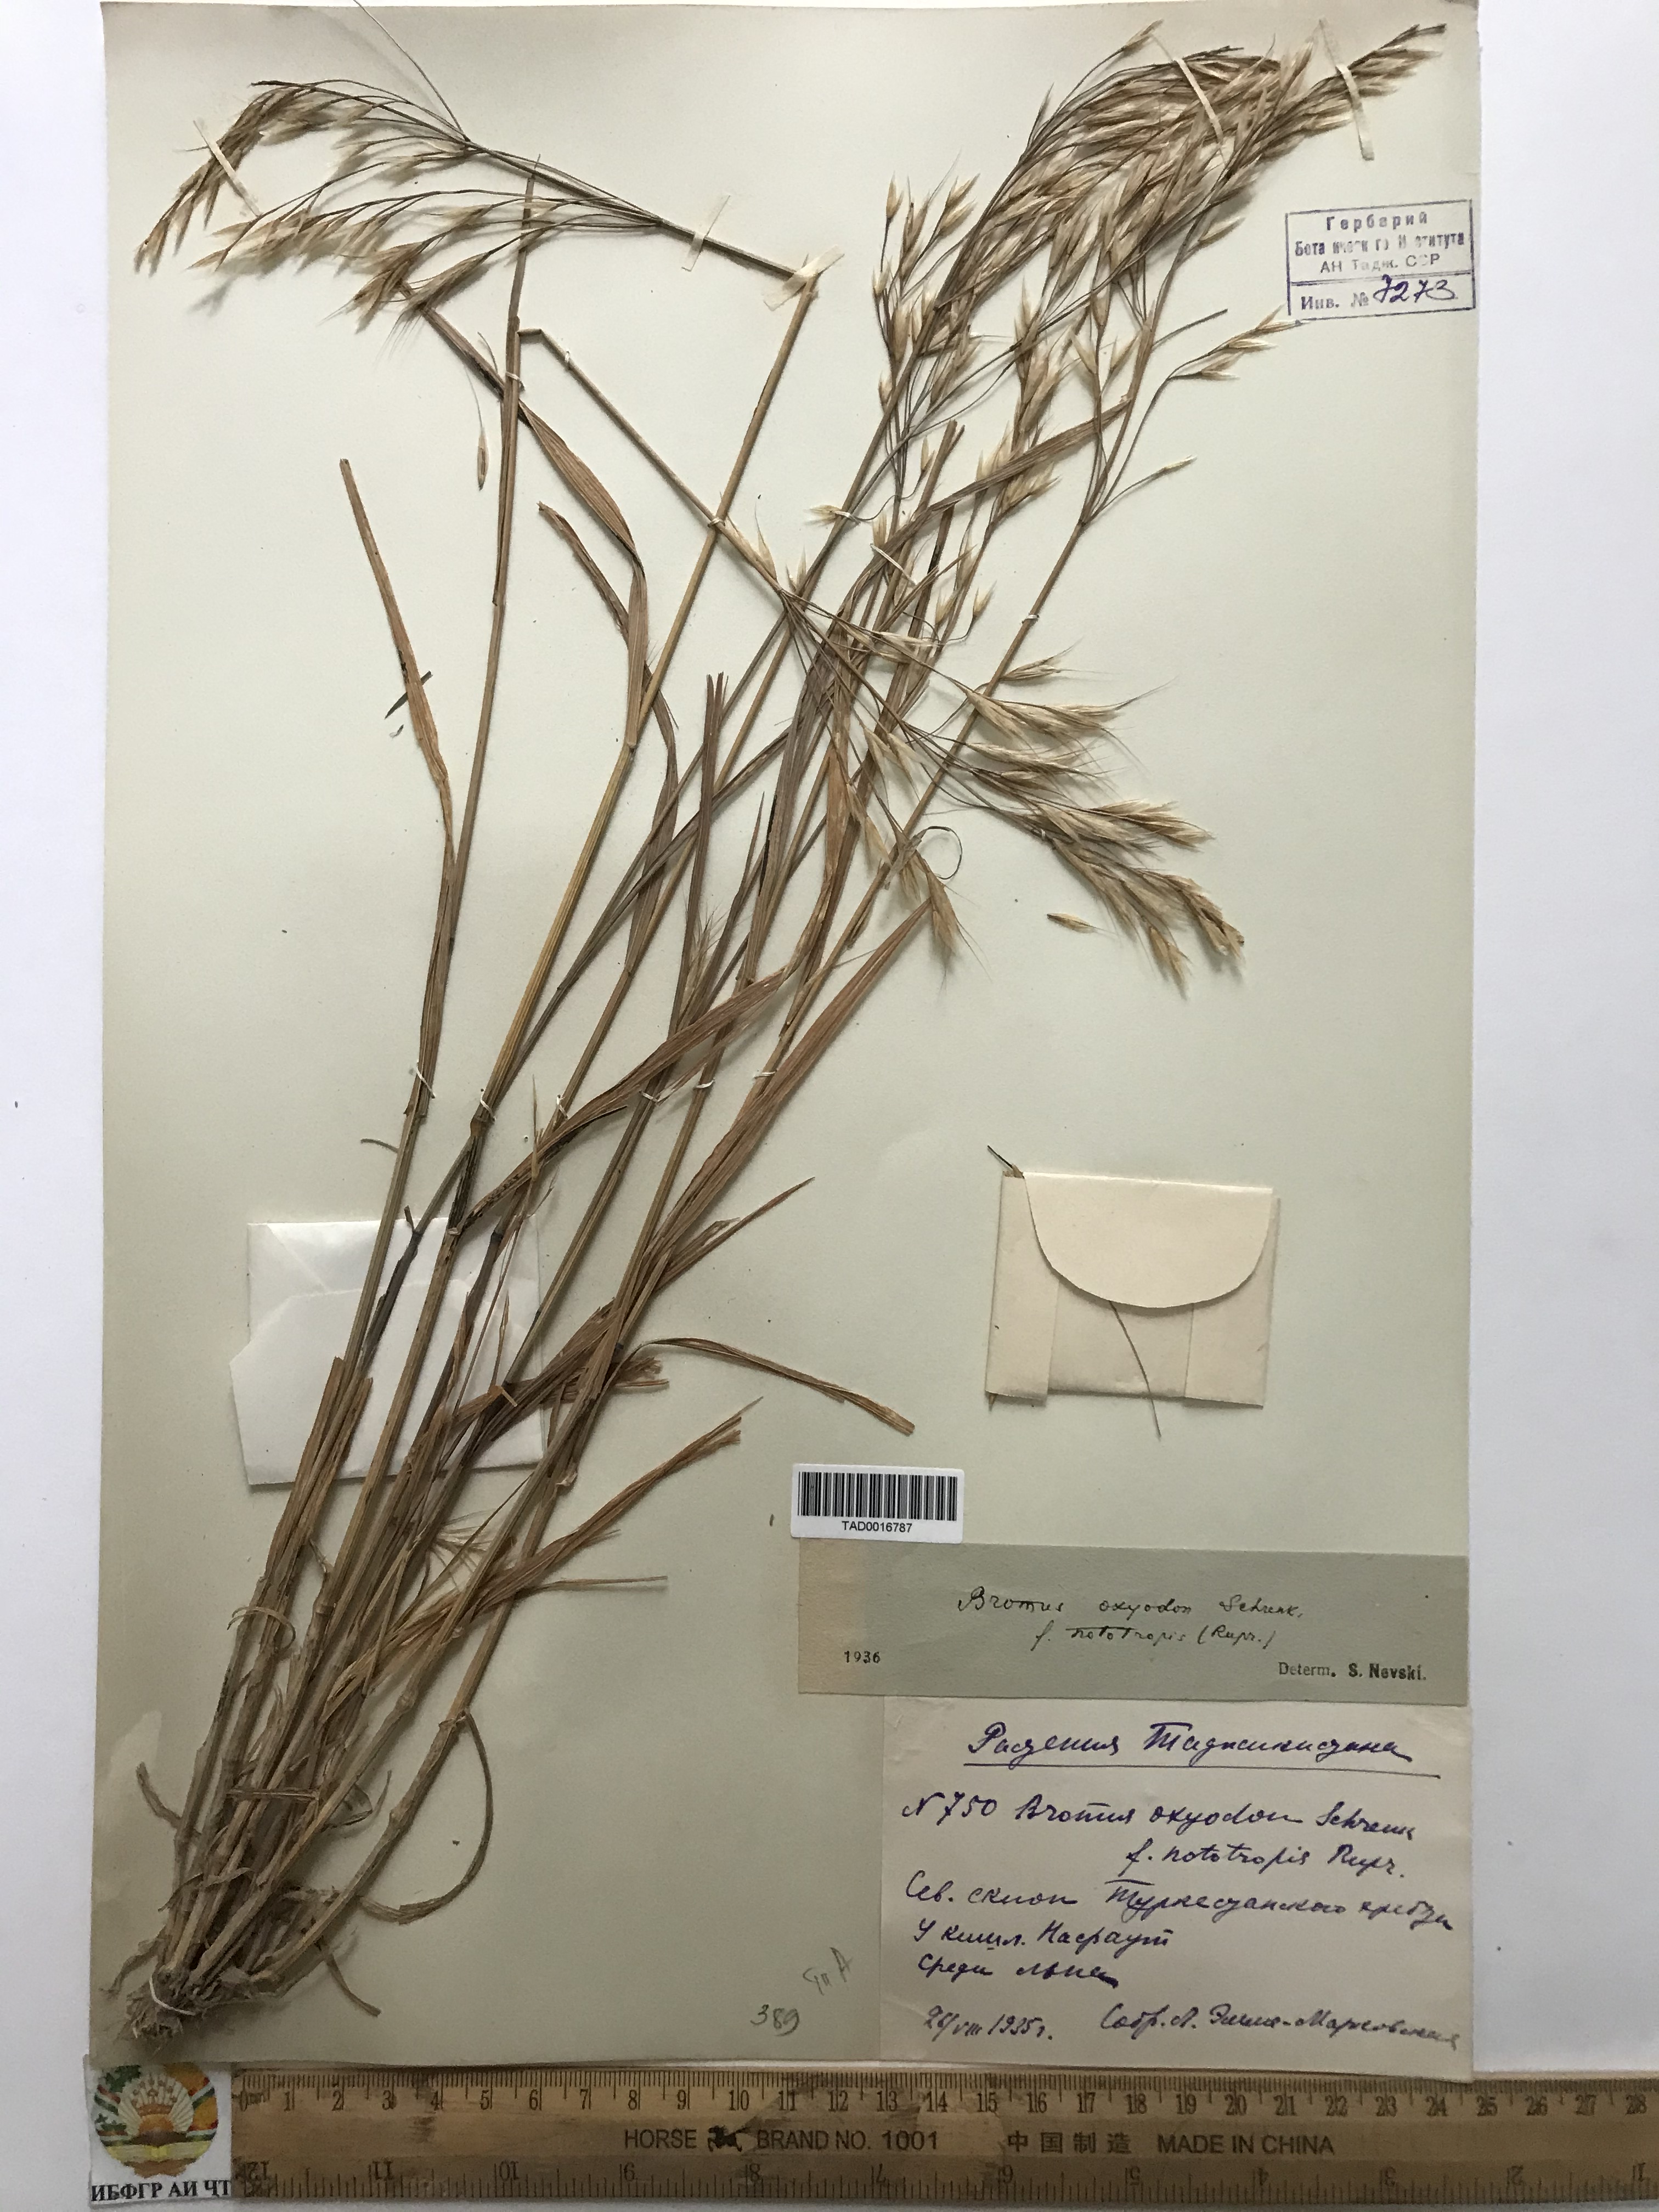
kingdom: Plantae
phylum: Tracheophyta
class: Liliopsida
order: Poales
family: Poaceae
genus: Bromus
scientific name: Bromus oxyodon
